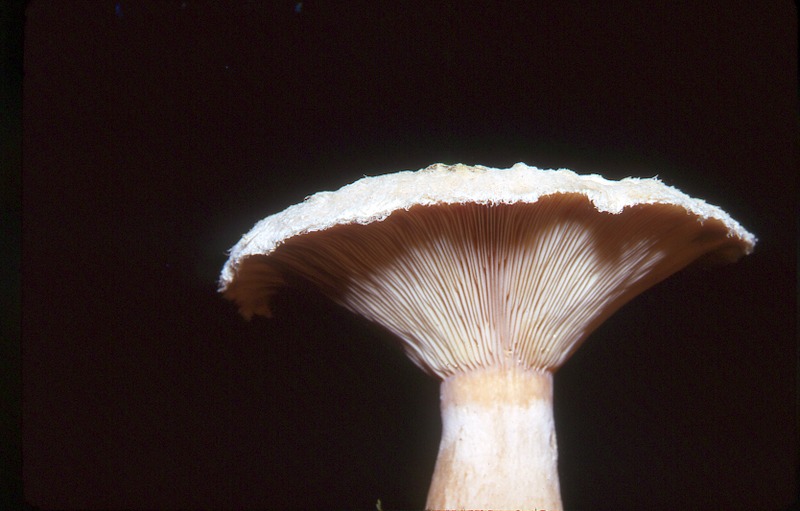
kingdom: Fungi
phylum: Basidiomycota
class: Agaricomycetes
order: Russulales
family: Russulaceae
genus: Lactarius
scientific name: Lactarius torminosus
